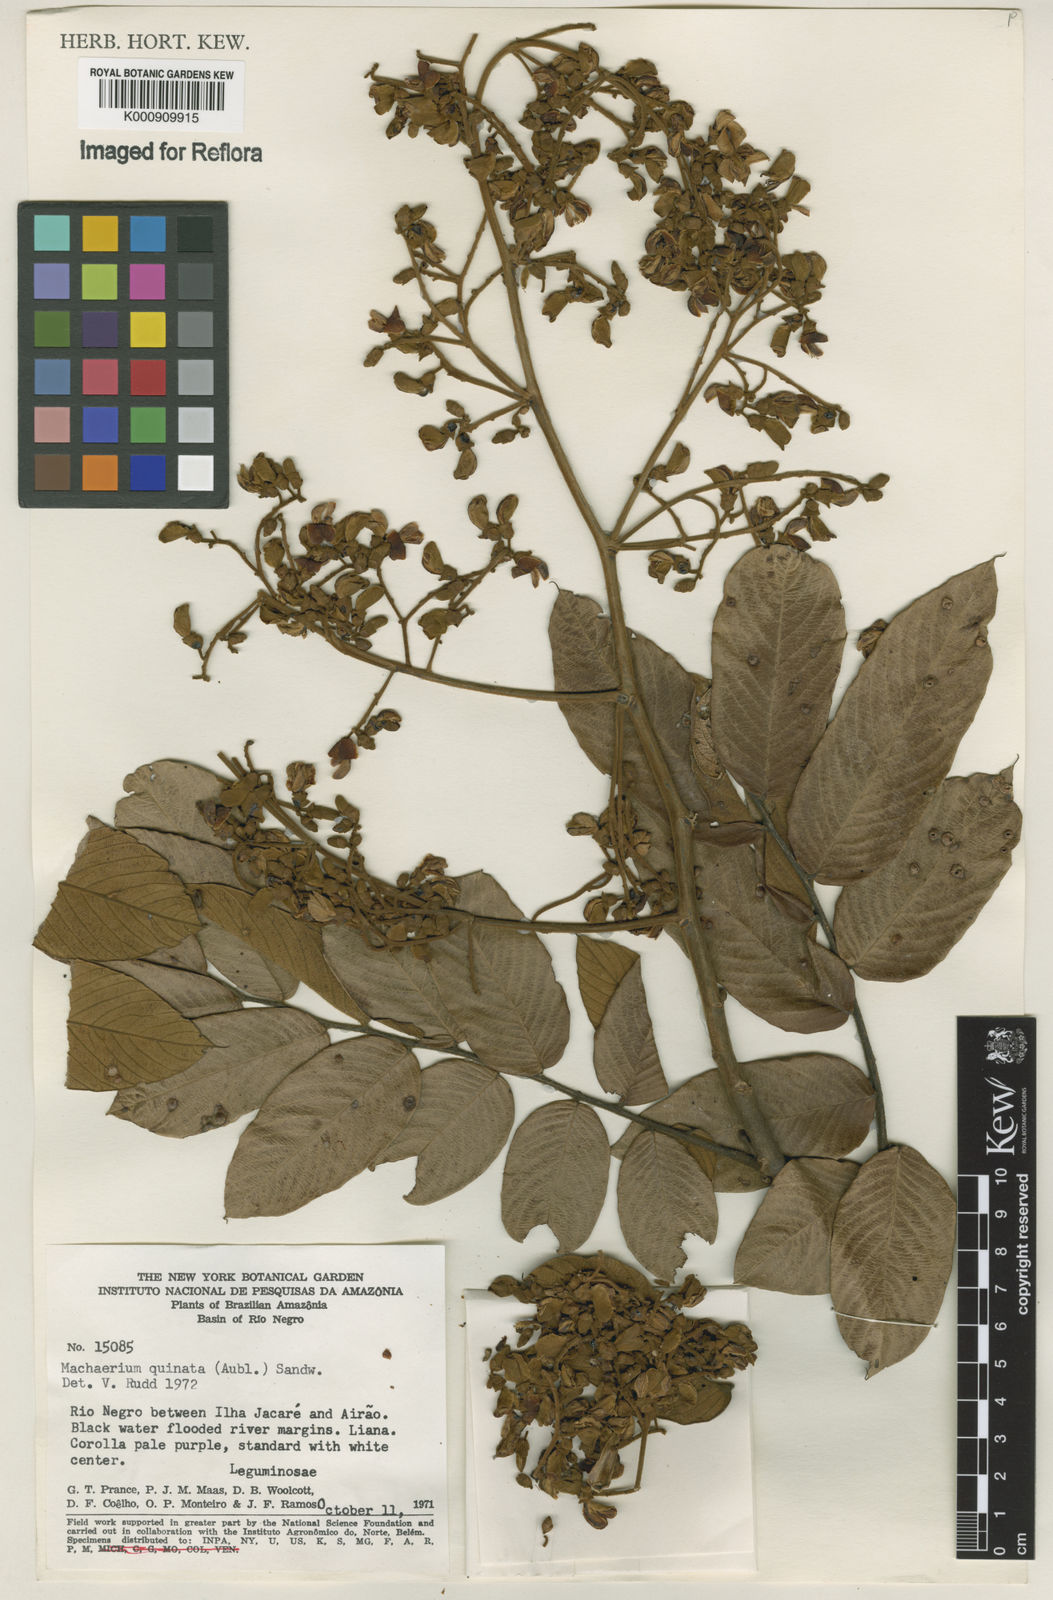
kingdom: Plantae
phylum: Tracheophyta
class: Magnoliopsida
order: Fabales
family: Fabaceae
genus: Machaerium
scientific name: Machaerium quinata
